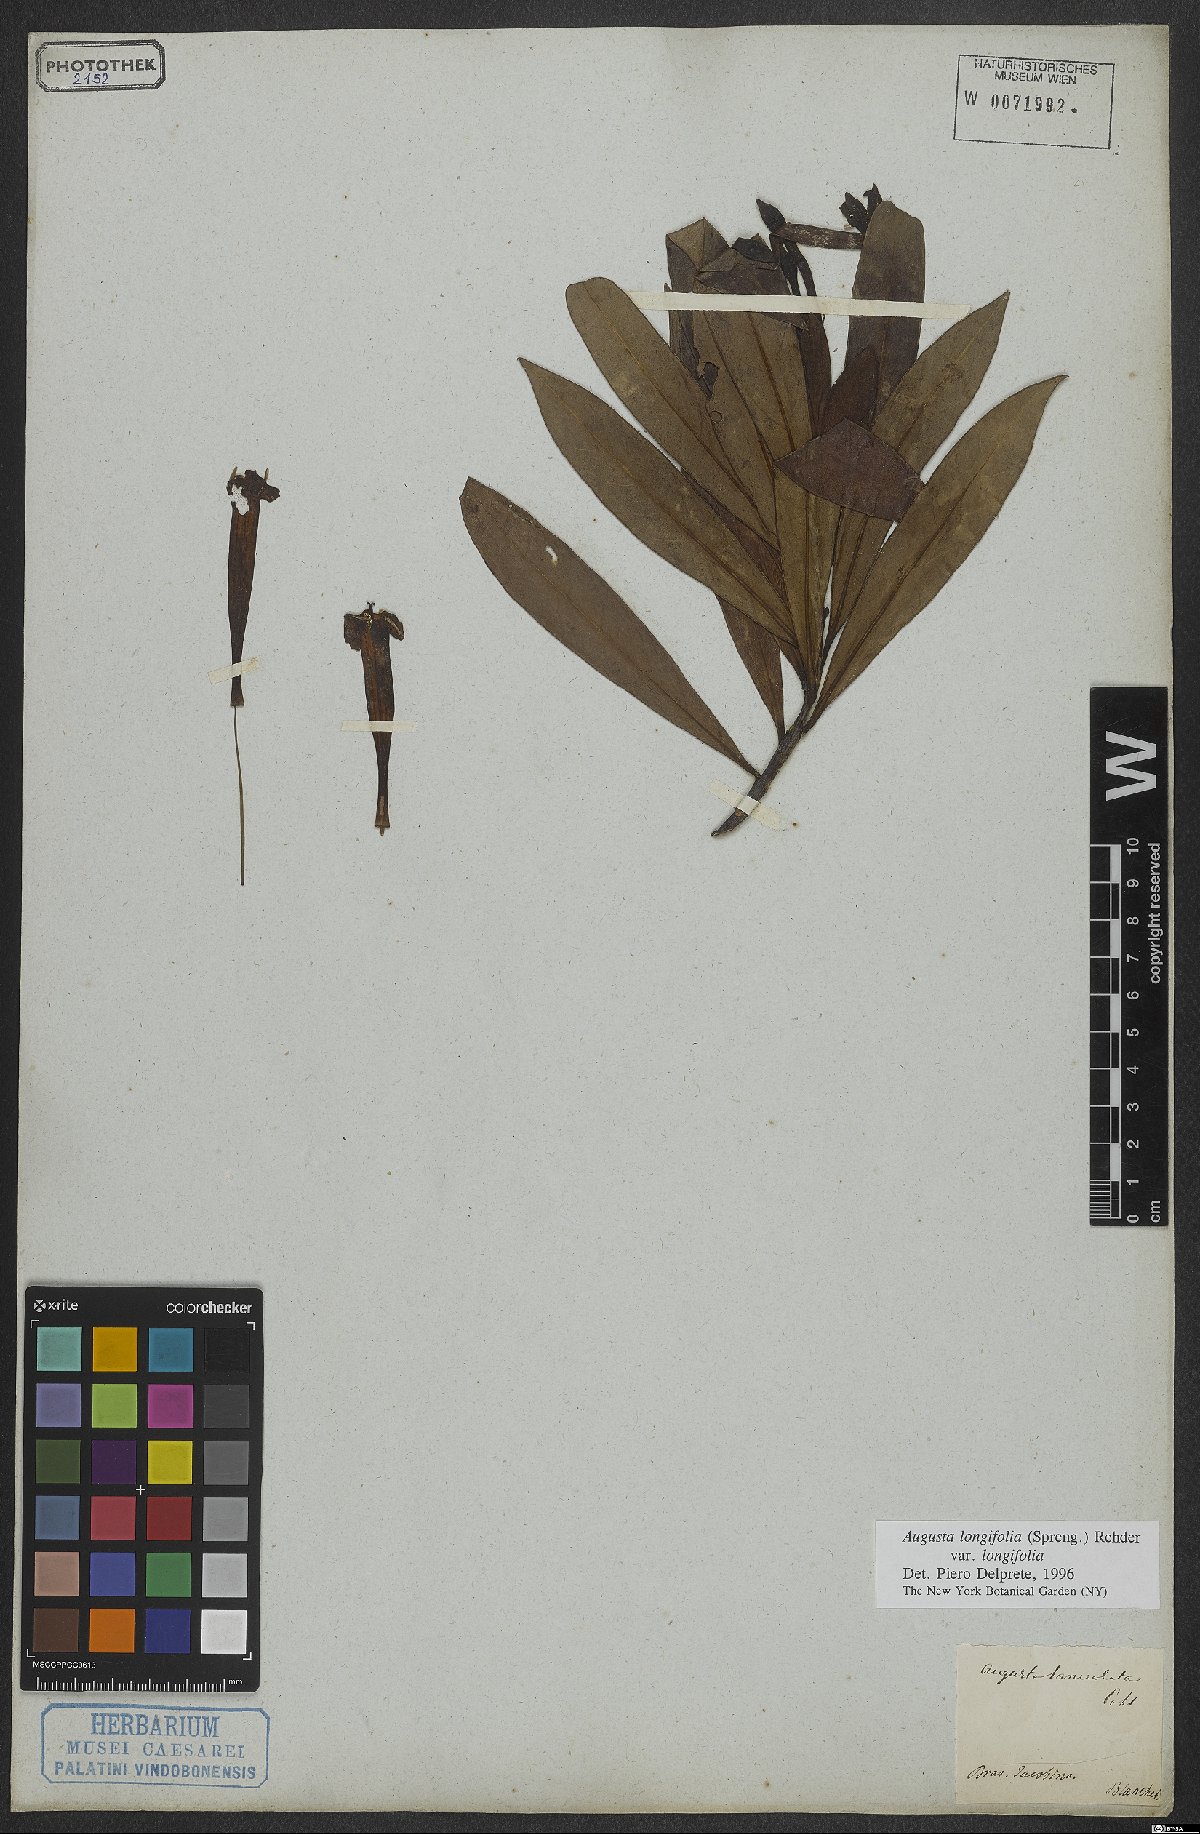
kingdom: Plantae
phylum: Tracheophyta
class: Magnoliopsida
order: Gentianales
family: Rubiaceae
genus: Augusta
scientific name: Augusta longifolia
